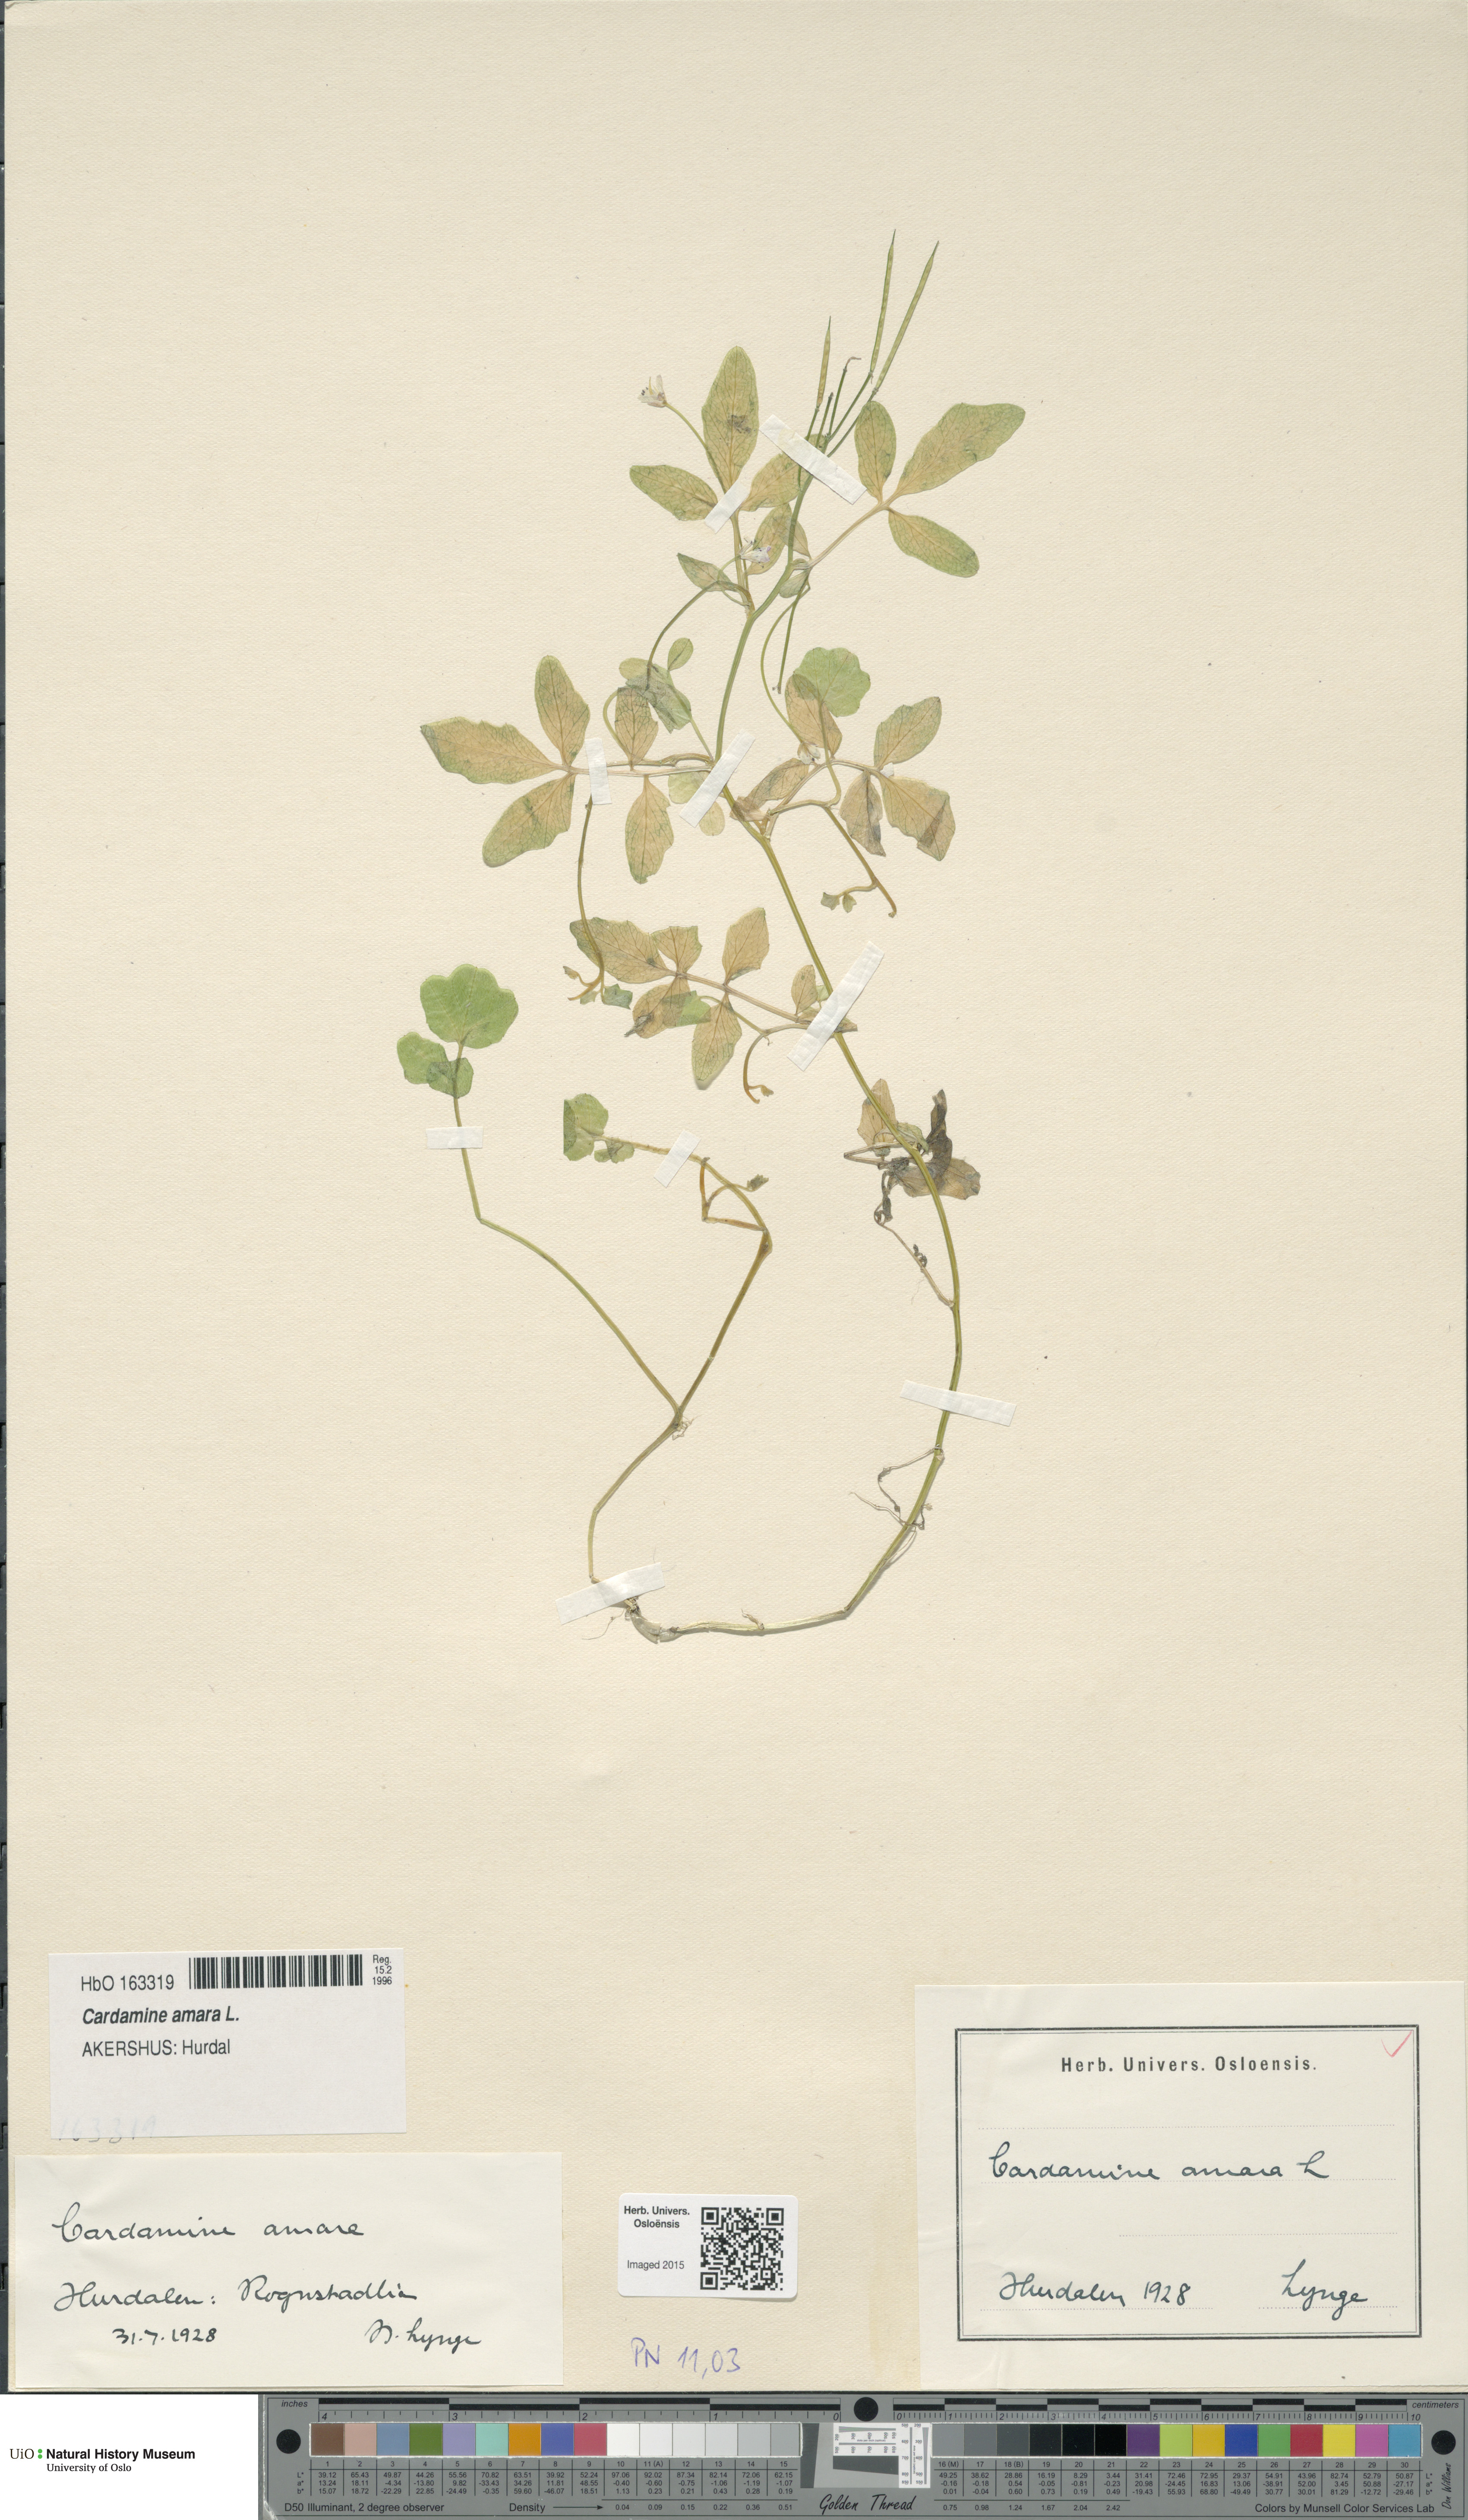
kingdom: Plantae
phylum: Tracheophyta
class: Magnoliopsida
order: Brassicales
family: Brassicaceae
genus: Cardamine
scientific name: Cardamine amara
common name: Large bitter-cress
